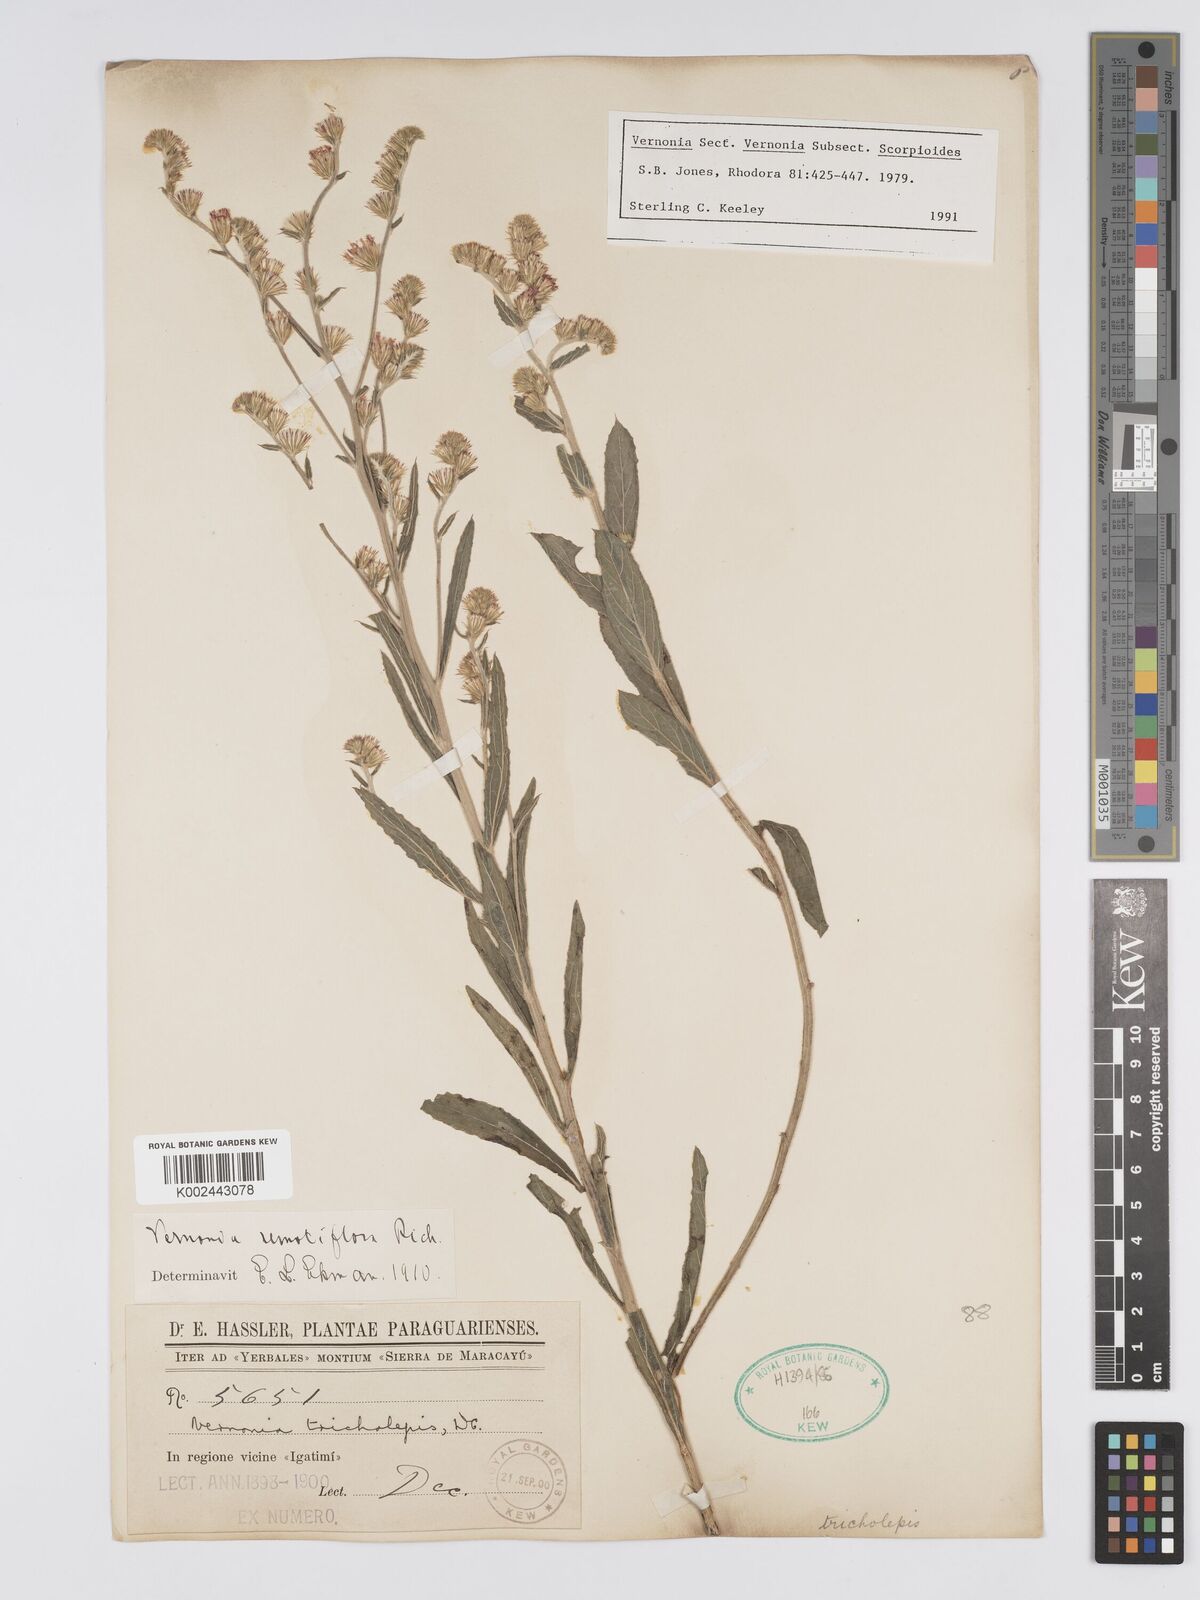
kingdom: Plantae
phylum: Tracheophyta
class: Magnoliopsida
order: Asterales
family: Asteraceae
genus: Lepidaploa
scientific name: Lepidaploa remotiflora
